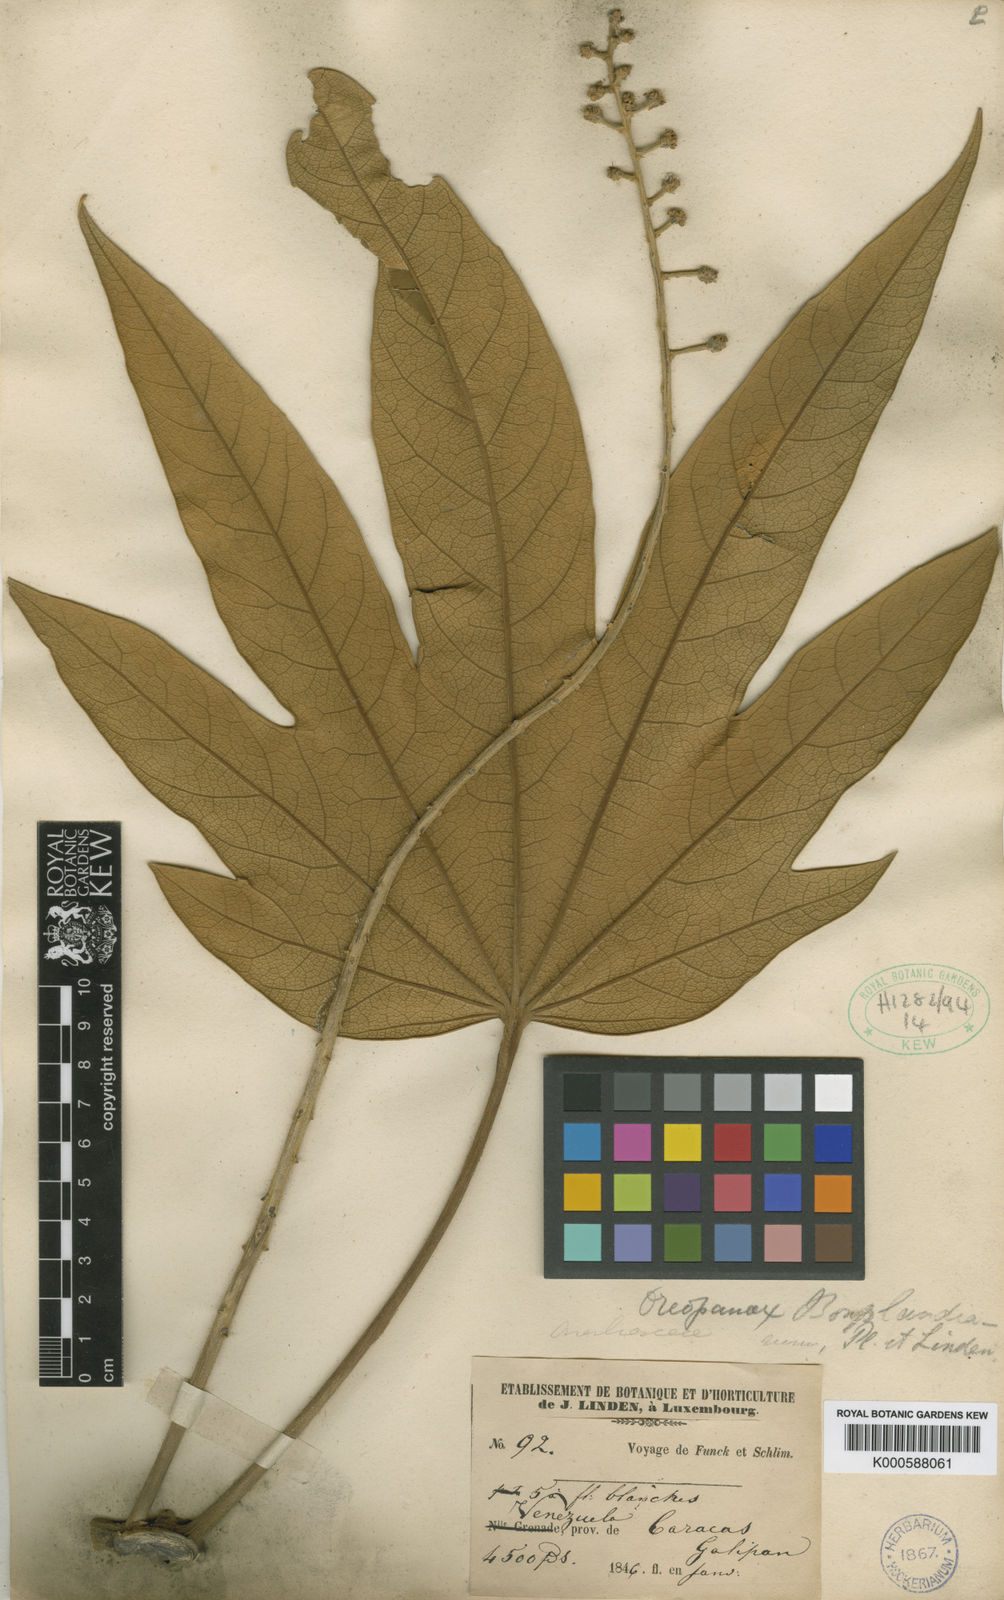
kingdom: Plantae
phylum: Tracheophyta
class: Magnoliopsida
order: Apiales
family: Araliaceae
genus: Oreopanax
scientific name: Oreopanax
